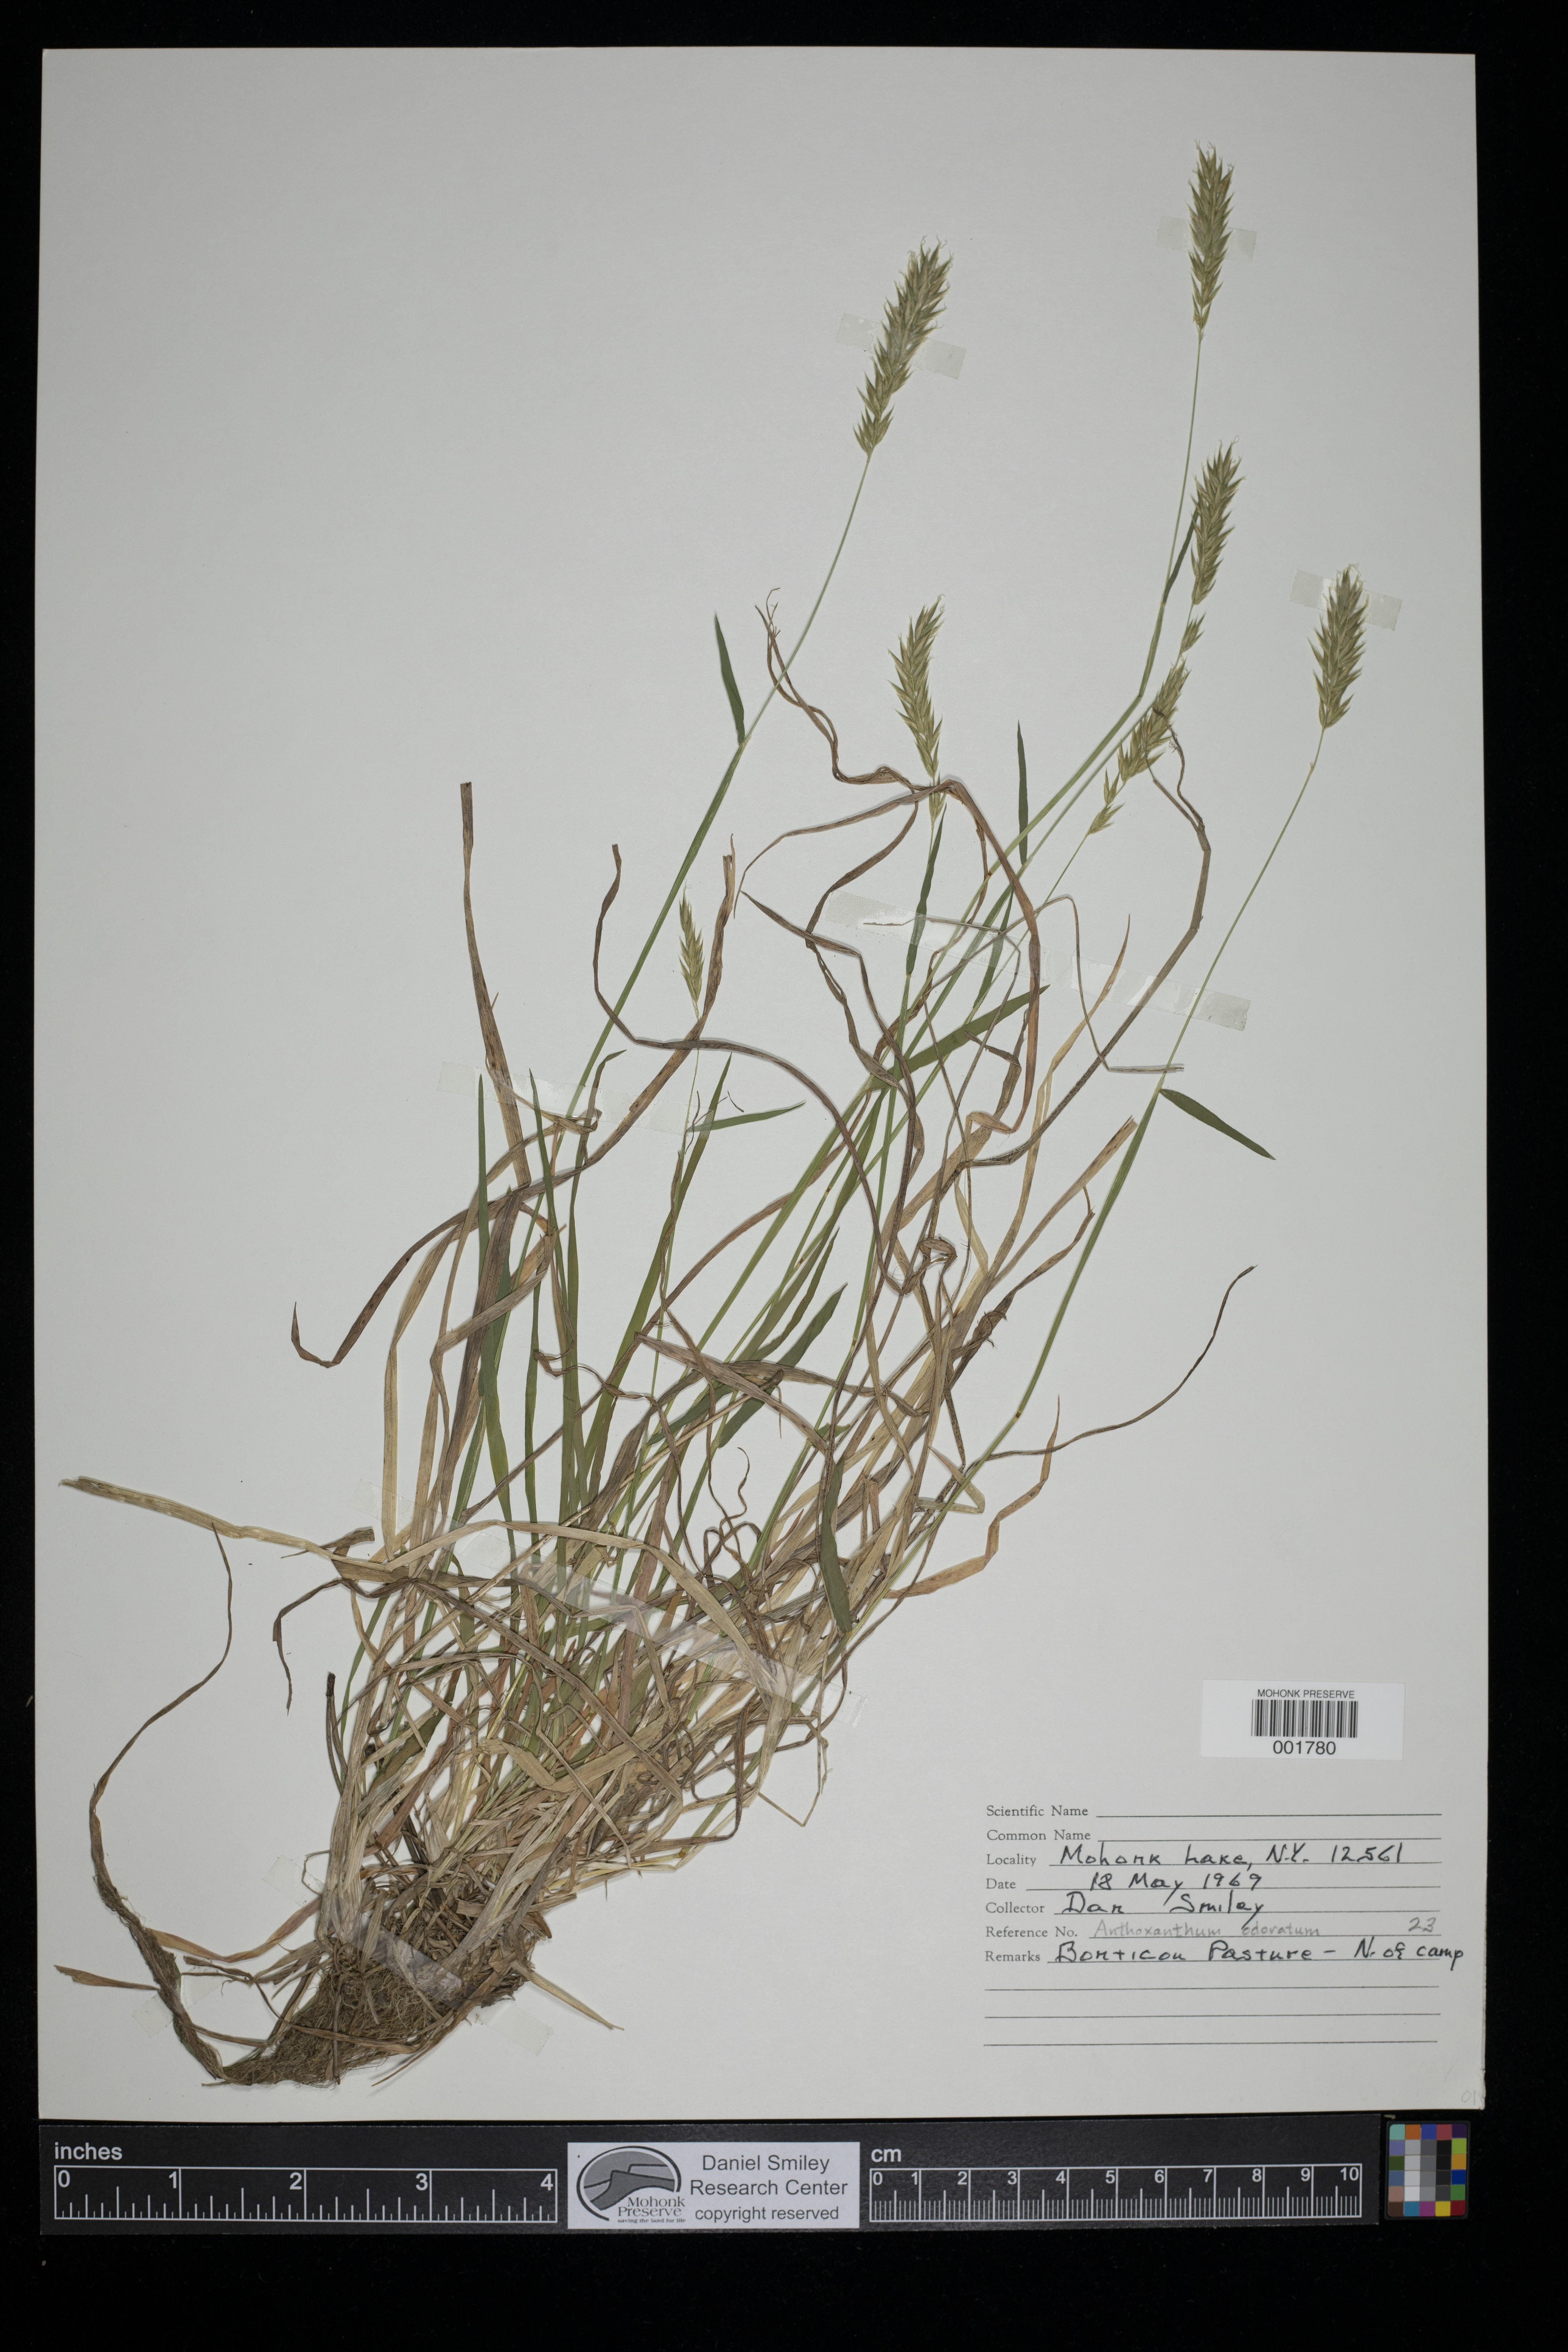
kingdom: Plantae
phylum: Tracheophyta
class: Liliopsida
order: Poales
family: Poaceae
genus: Anthoxanthum
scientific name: Anthoxanthum odoratum
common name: Sweet vernalgrass
